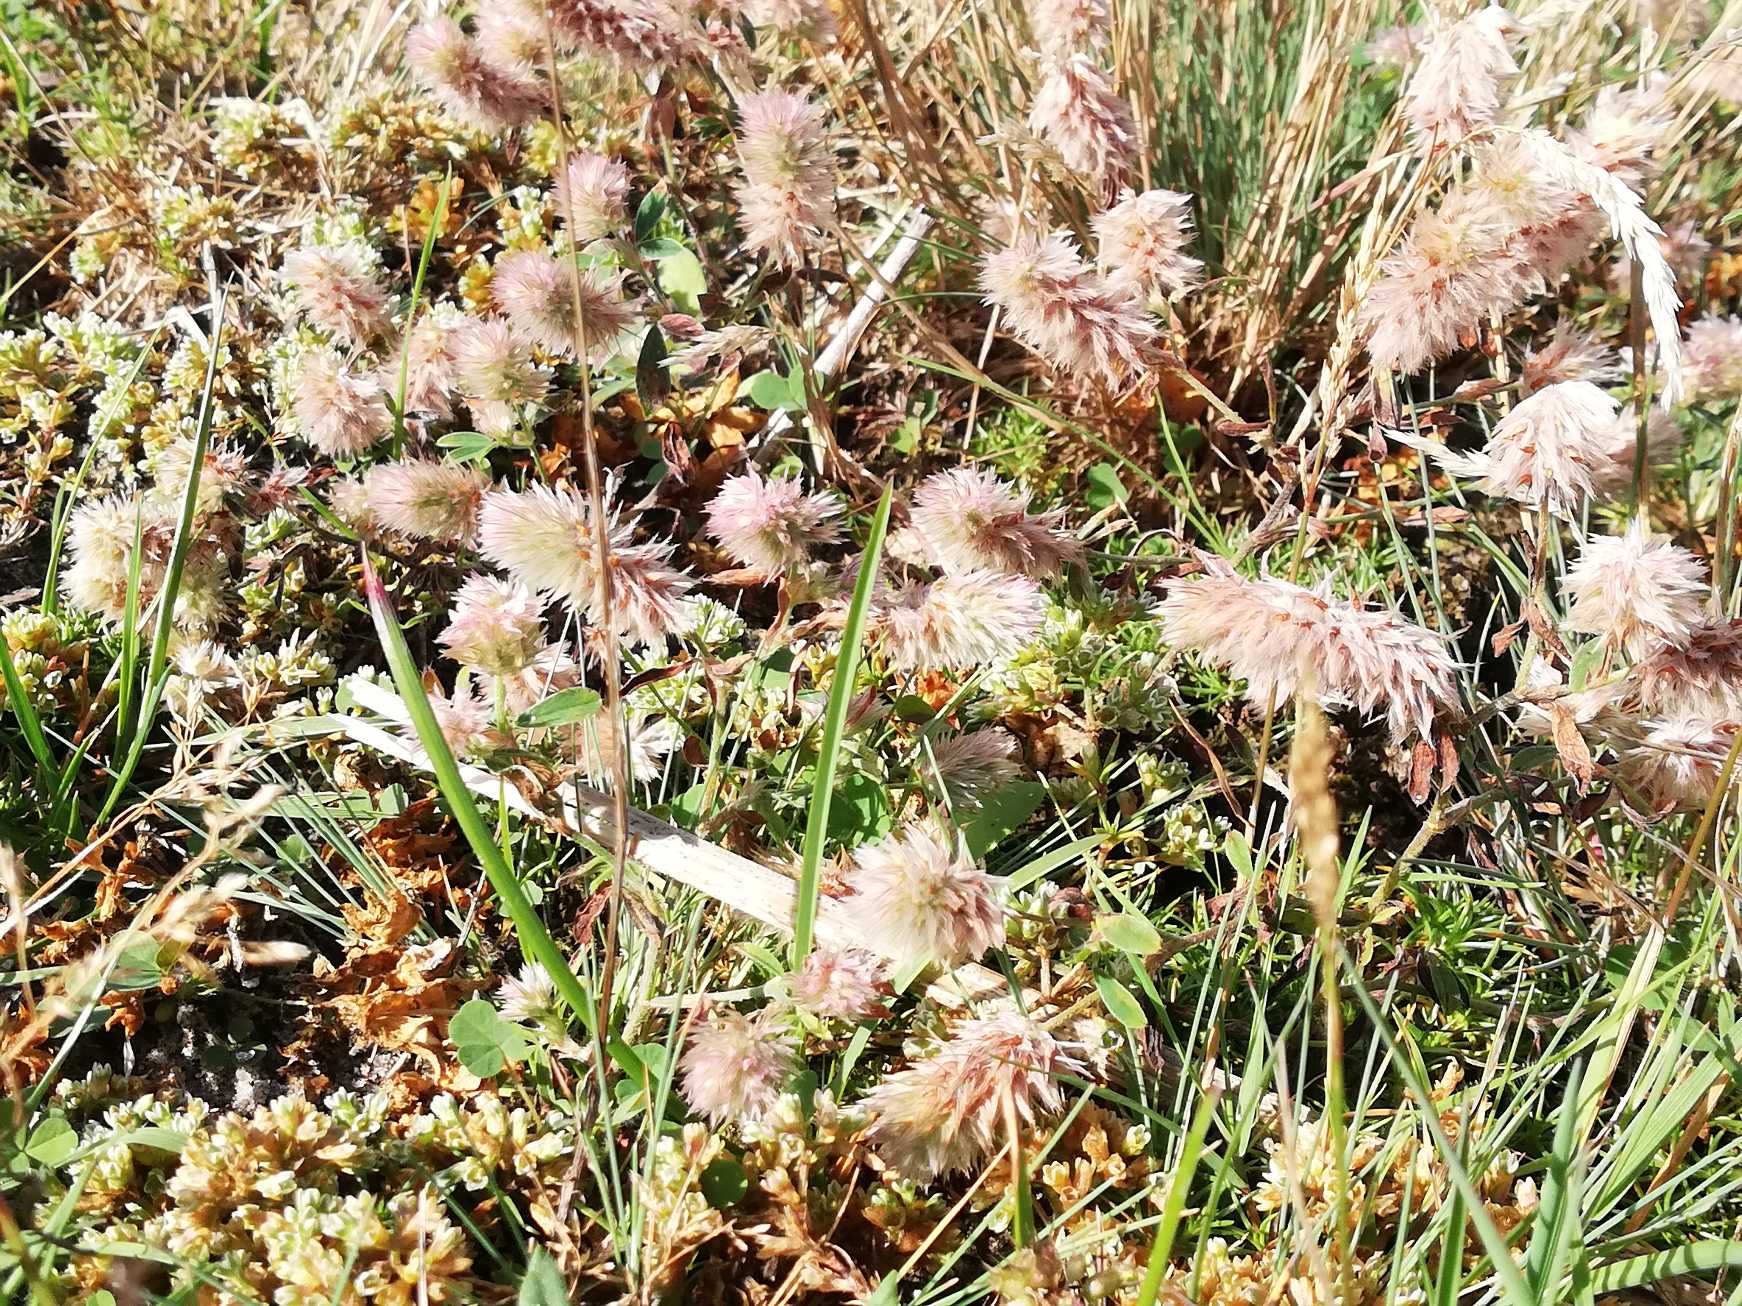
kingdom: Plantae
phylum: Tracheophyta
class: Magnoliopsida
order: Fabales
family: Fabaceae
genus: Trifolium
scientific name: Trifolium arvense
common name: Hare-kløver
